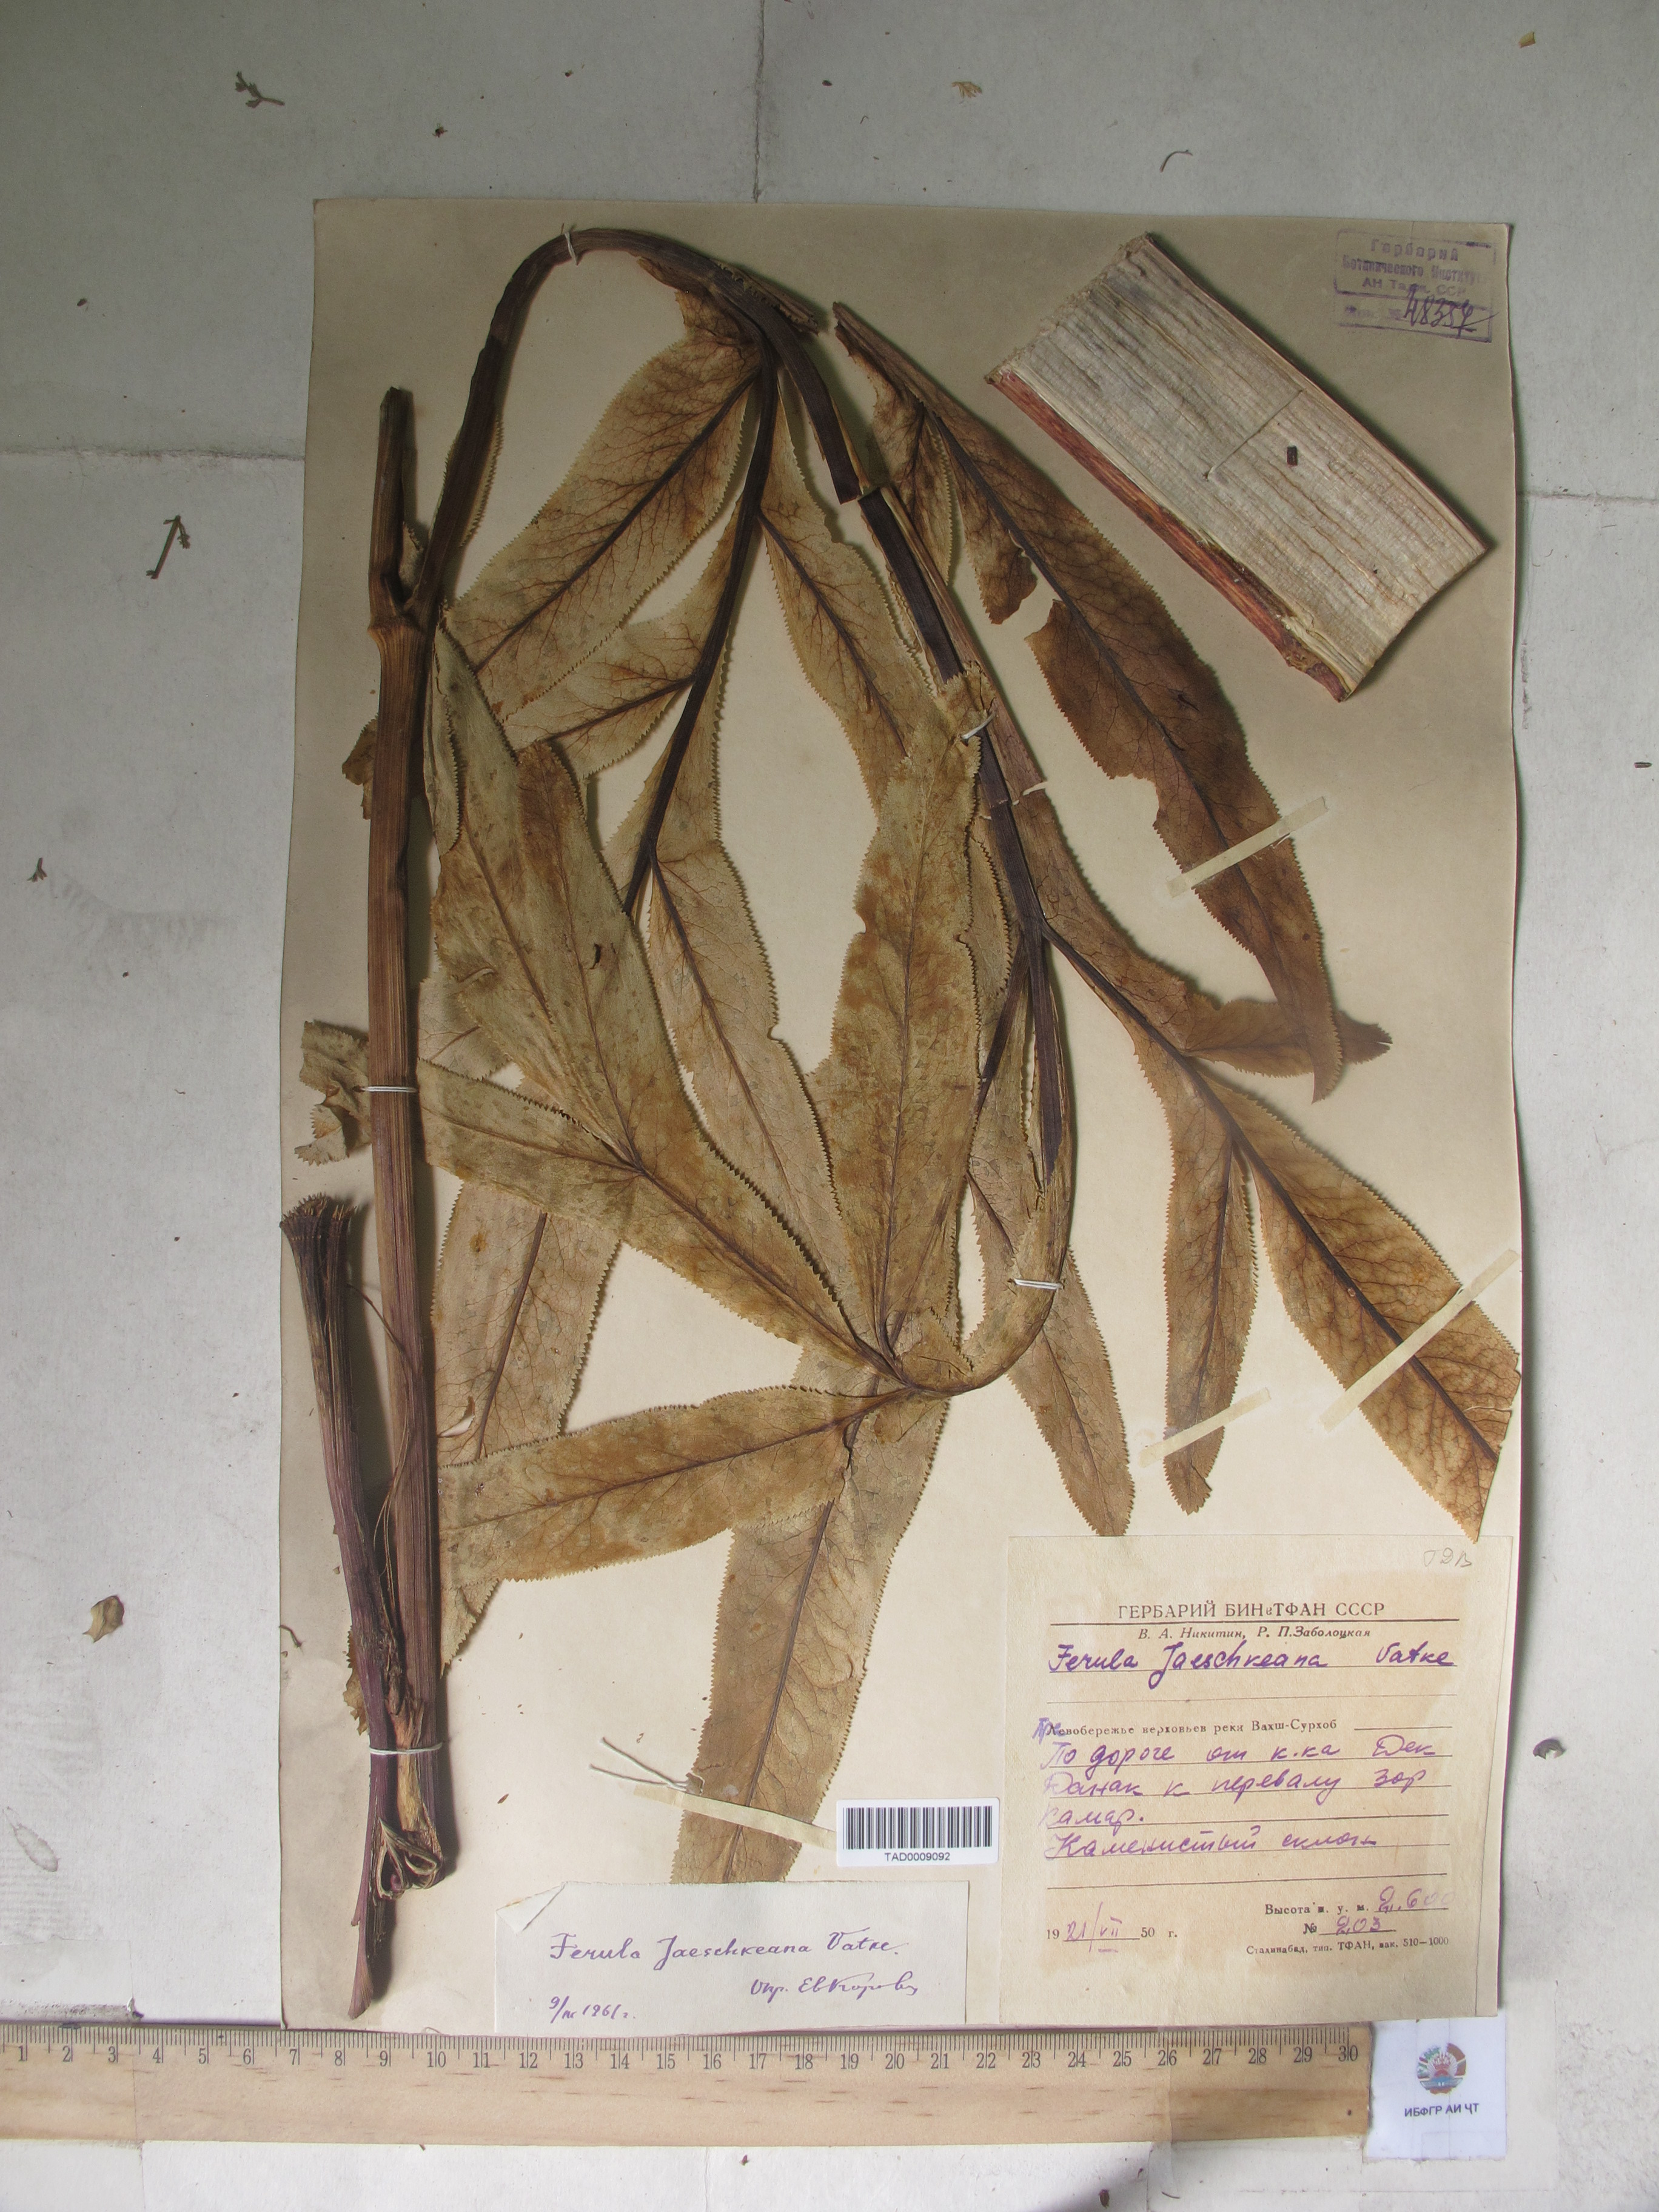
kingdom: Plantae
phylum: Tracheophyta
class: Magnoliopsida
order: Apiales
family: Apiaceae
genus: Ferula
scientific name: Ferula jaeschkeana
